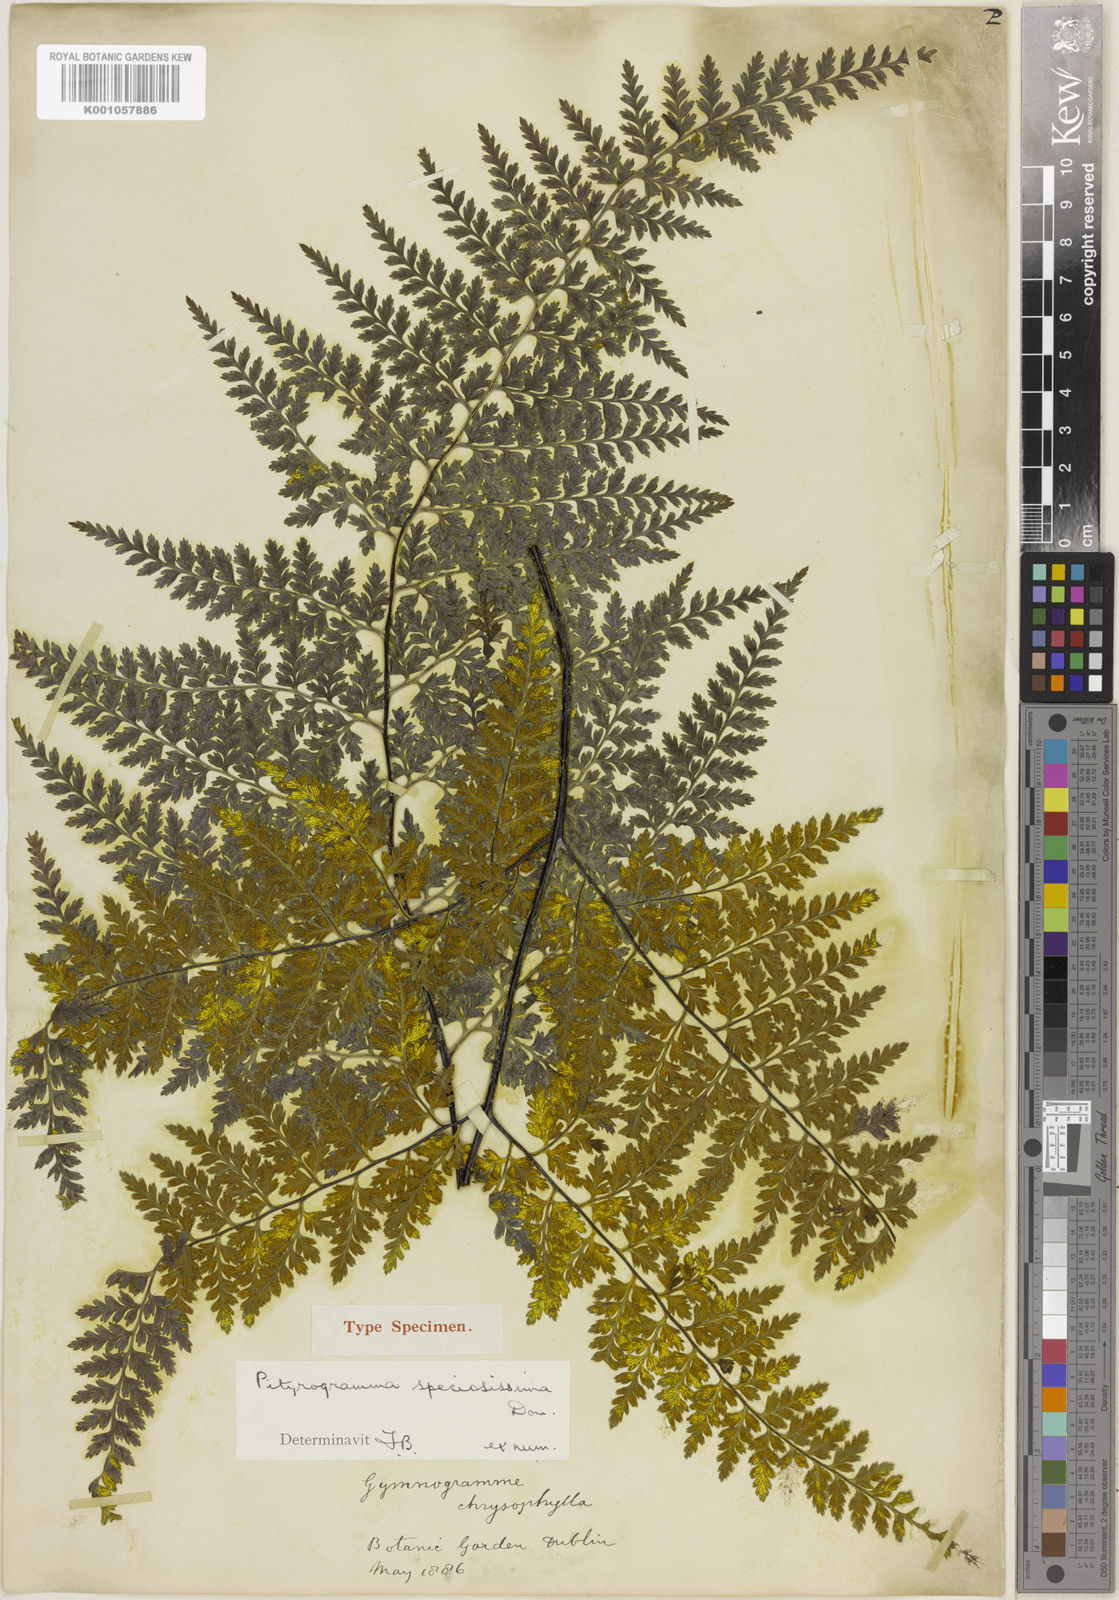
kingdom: Plantae
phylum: Tracheophyta
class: Polypodiopsida
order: Polypodiales
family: Pteridaceae
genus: Pityrogramma
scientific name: Pityrogramma
